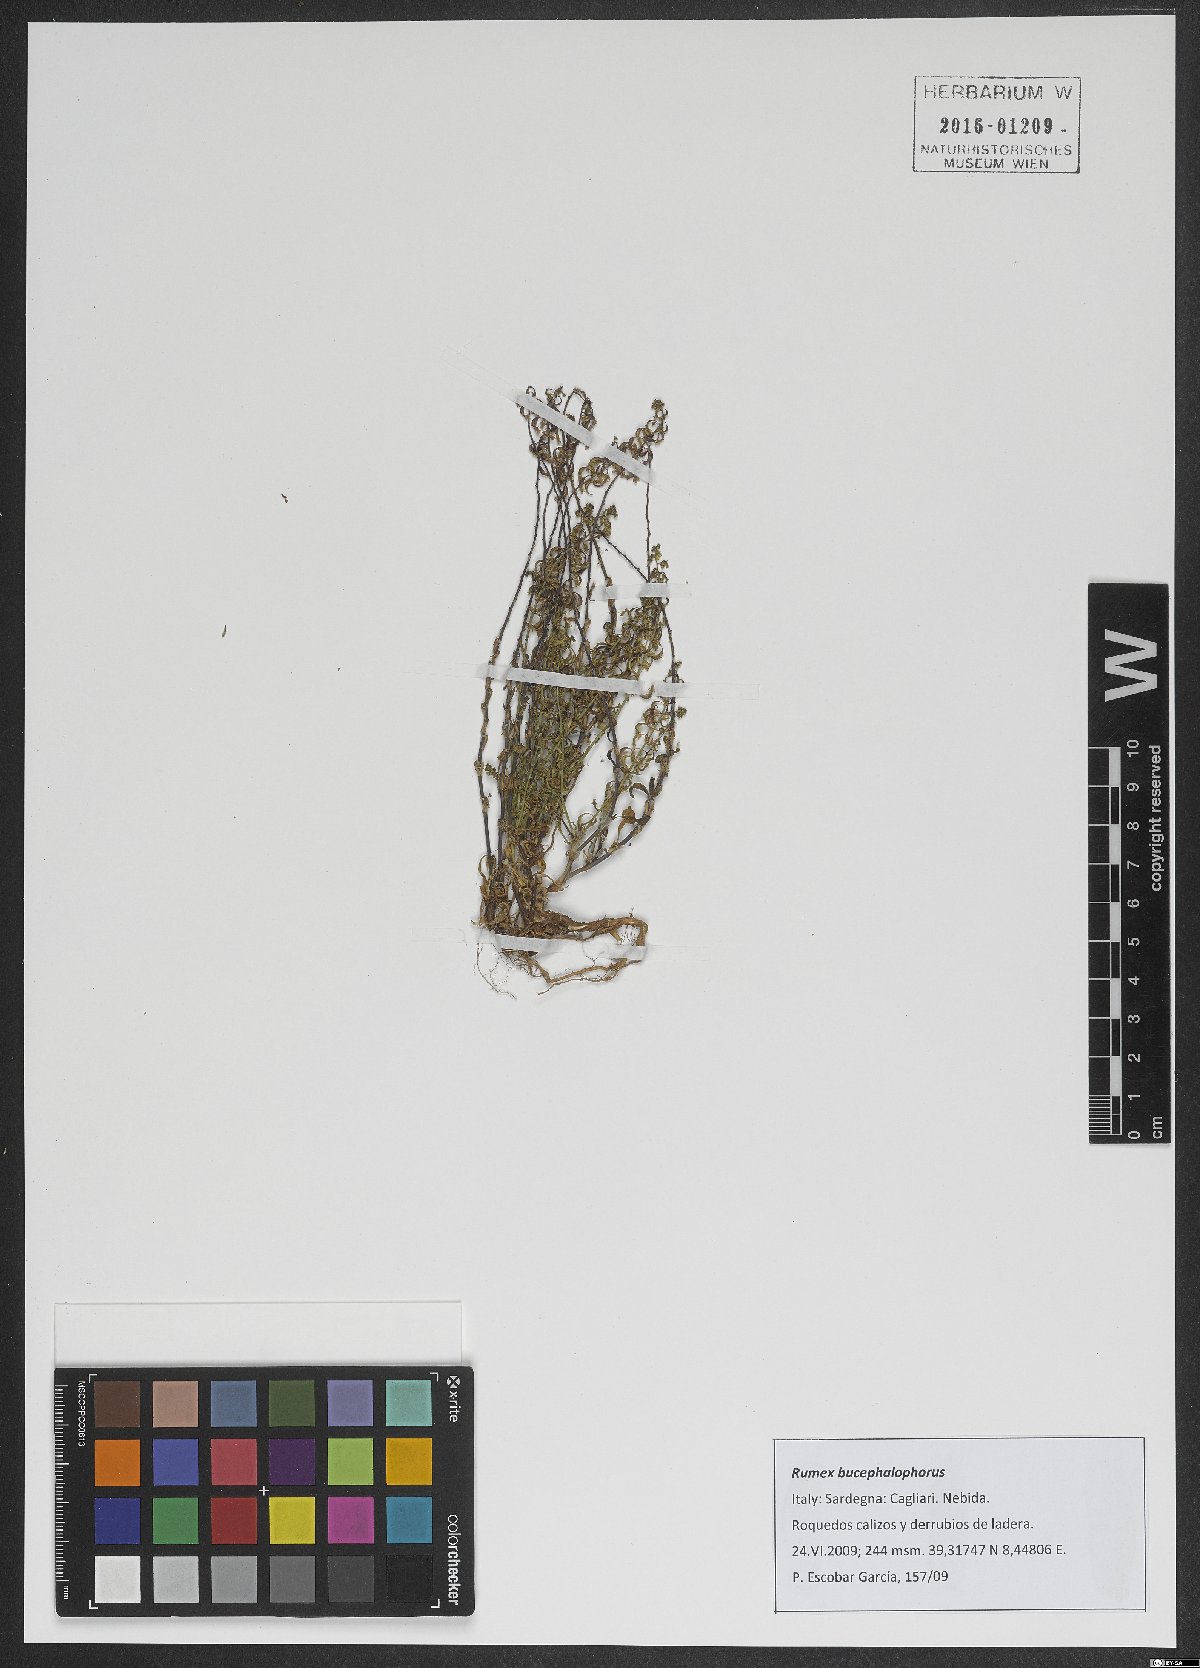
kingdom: Plantae
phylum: Tracheophyta
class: Magnoliopsida
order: Caryophyllales
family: Polygonaceae
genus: Rumex
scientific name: Rumex bucephalophorus
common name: Red dock
